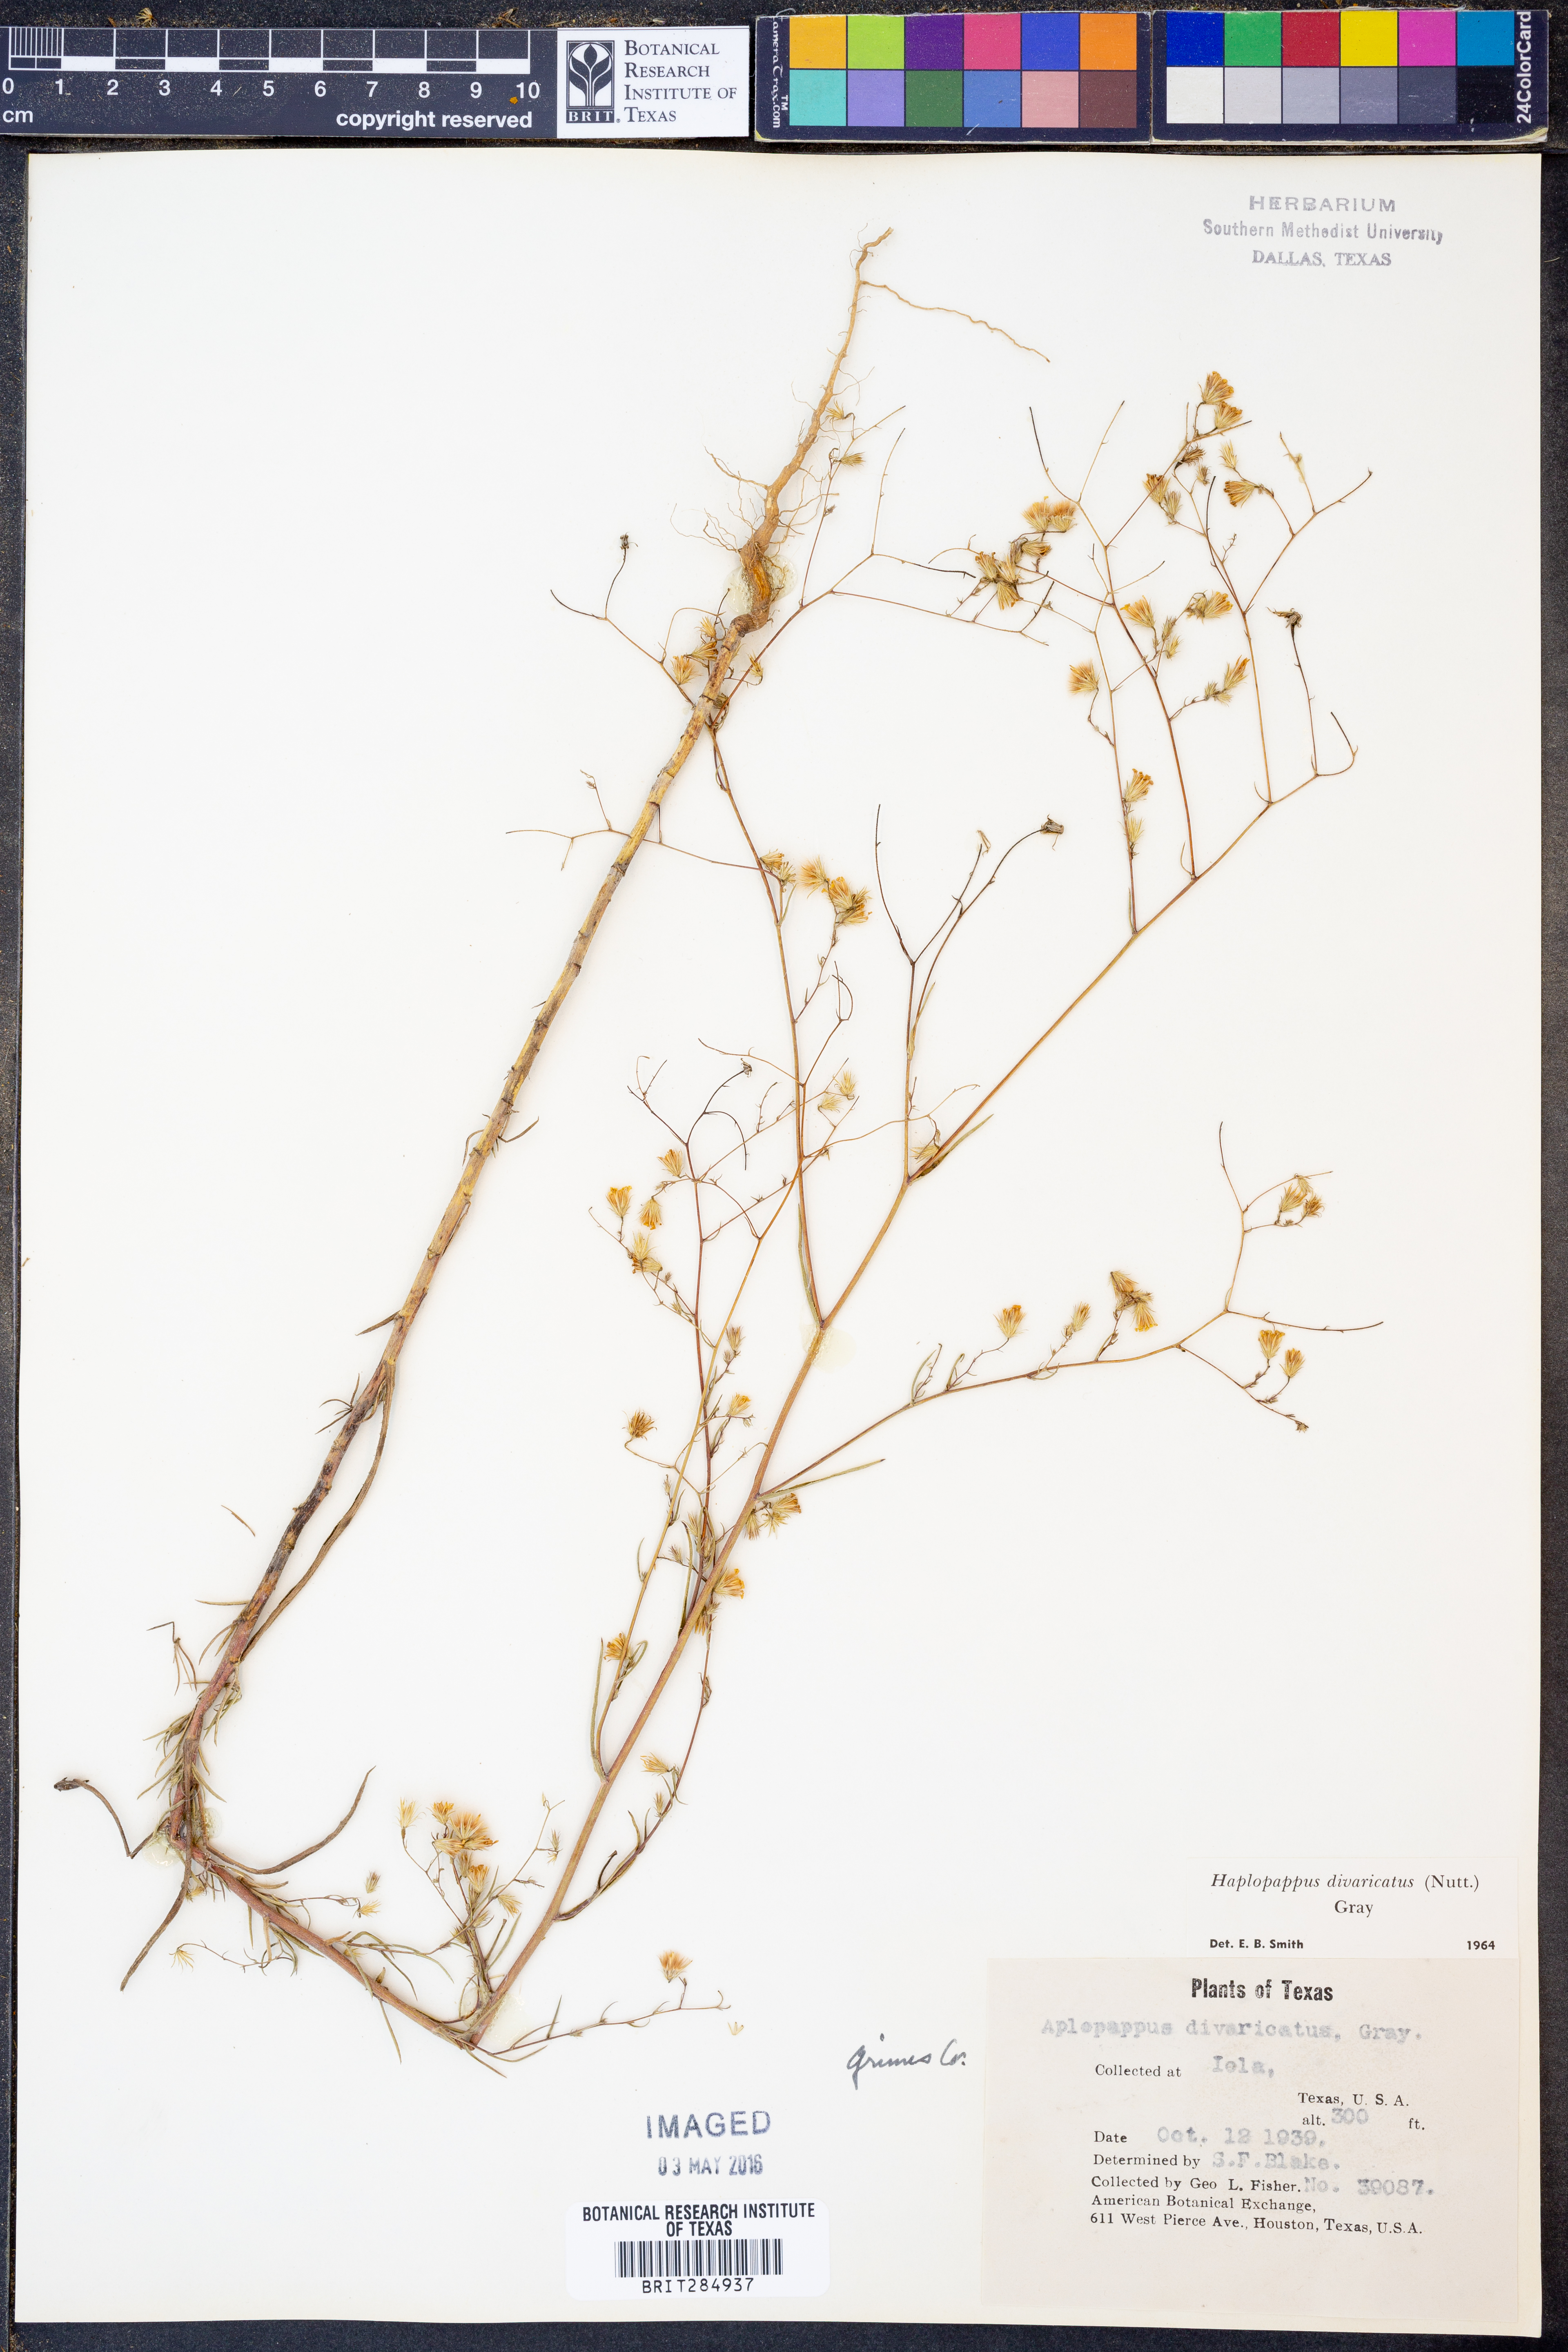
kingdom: Plantae
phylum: Tracheophyta
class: Magnoliopsida
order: Asterales
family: Asteraceae
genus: Croptilon
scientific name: Croptilon divaricatum
